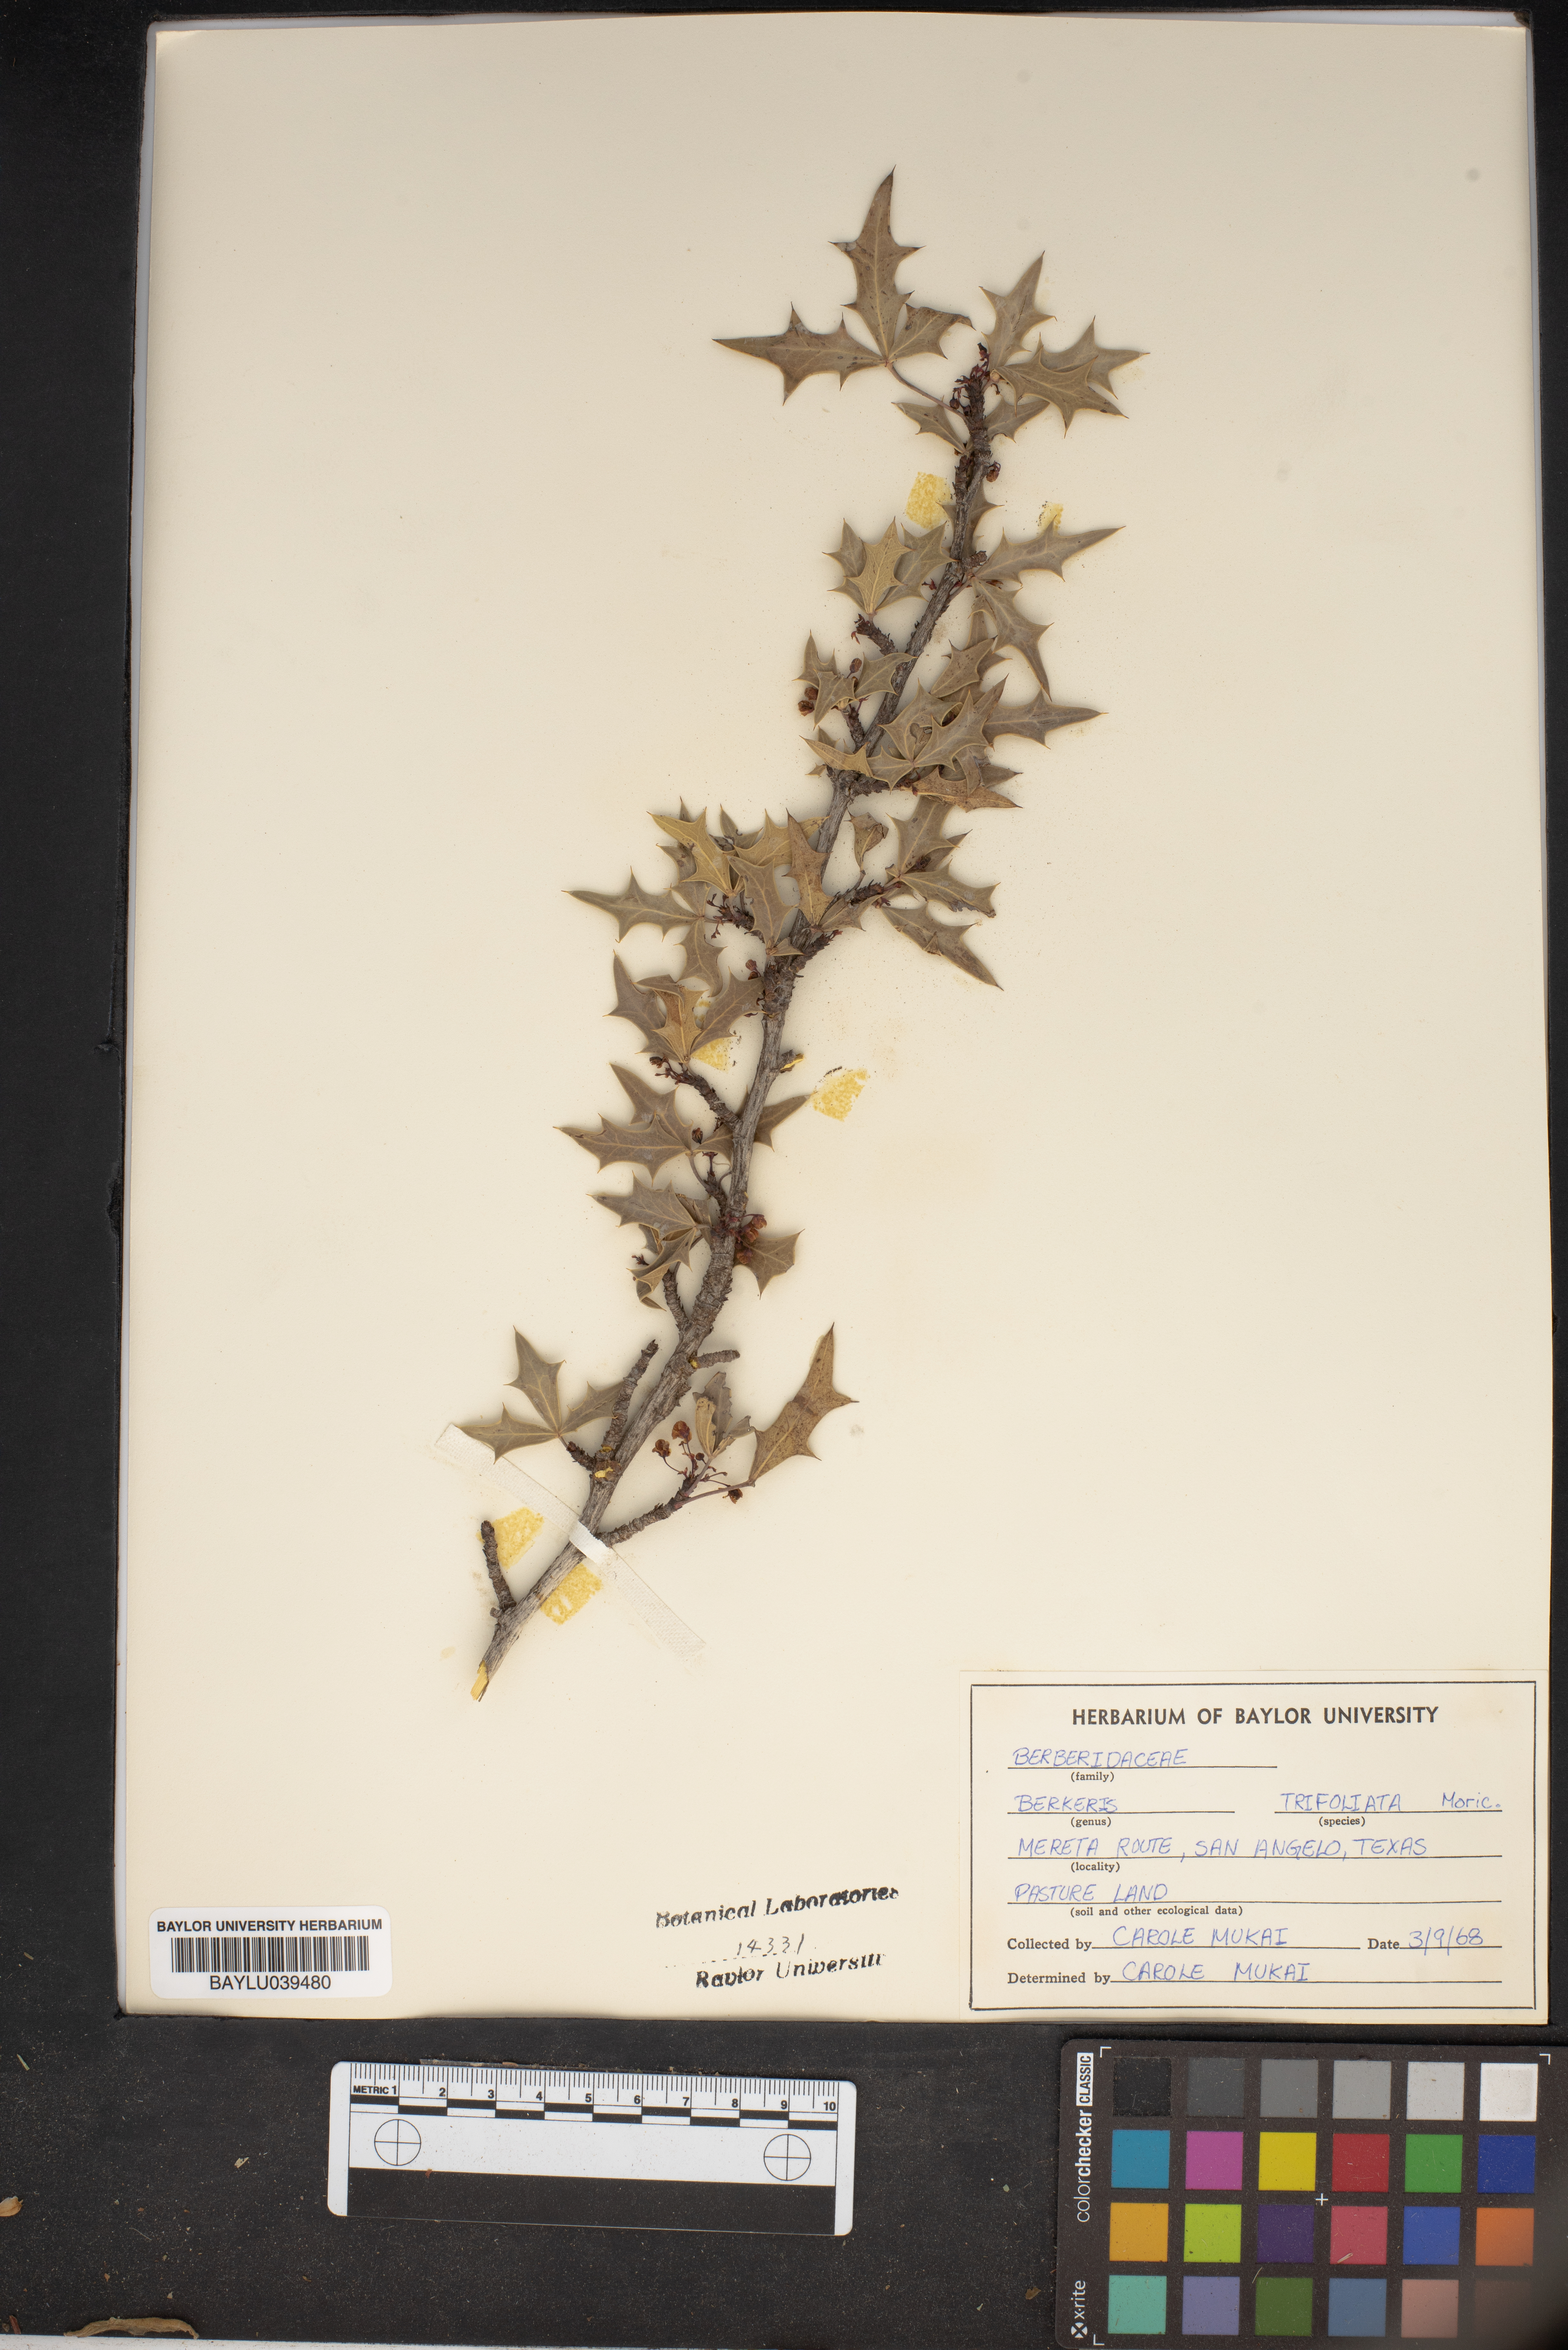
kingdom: Plantae
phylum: Tracheophyta
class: Magnoliopsida
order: Ranunculales
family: Berberidaceae
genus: Alloberberis
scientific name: Alloberberis fremontii
